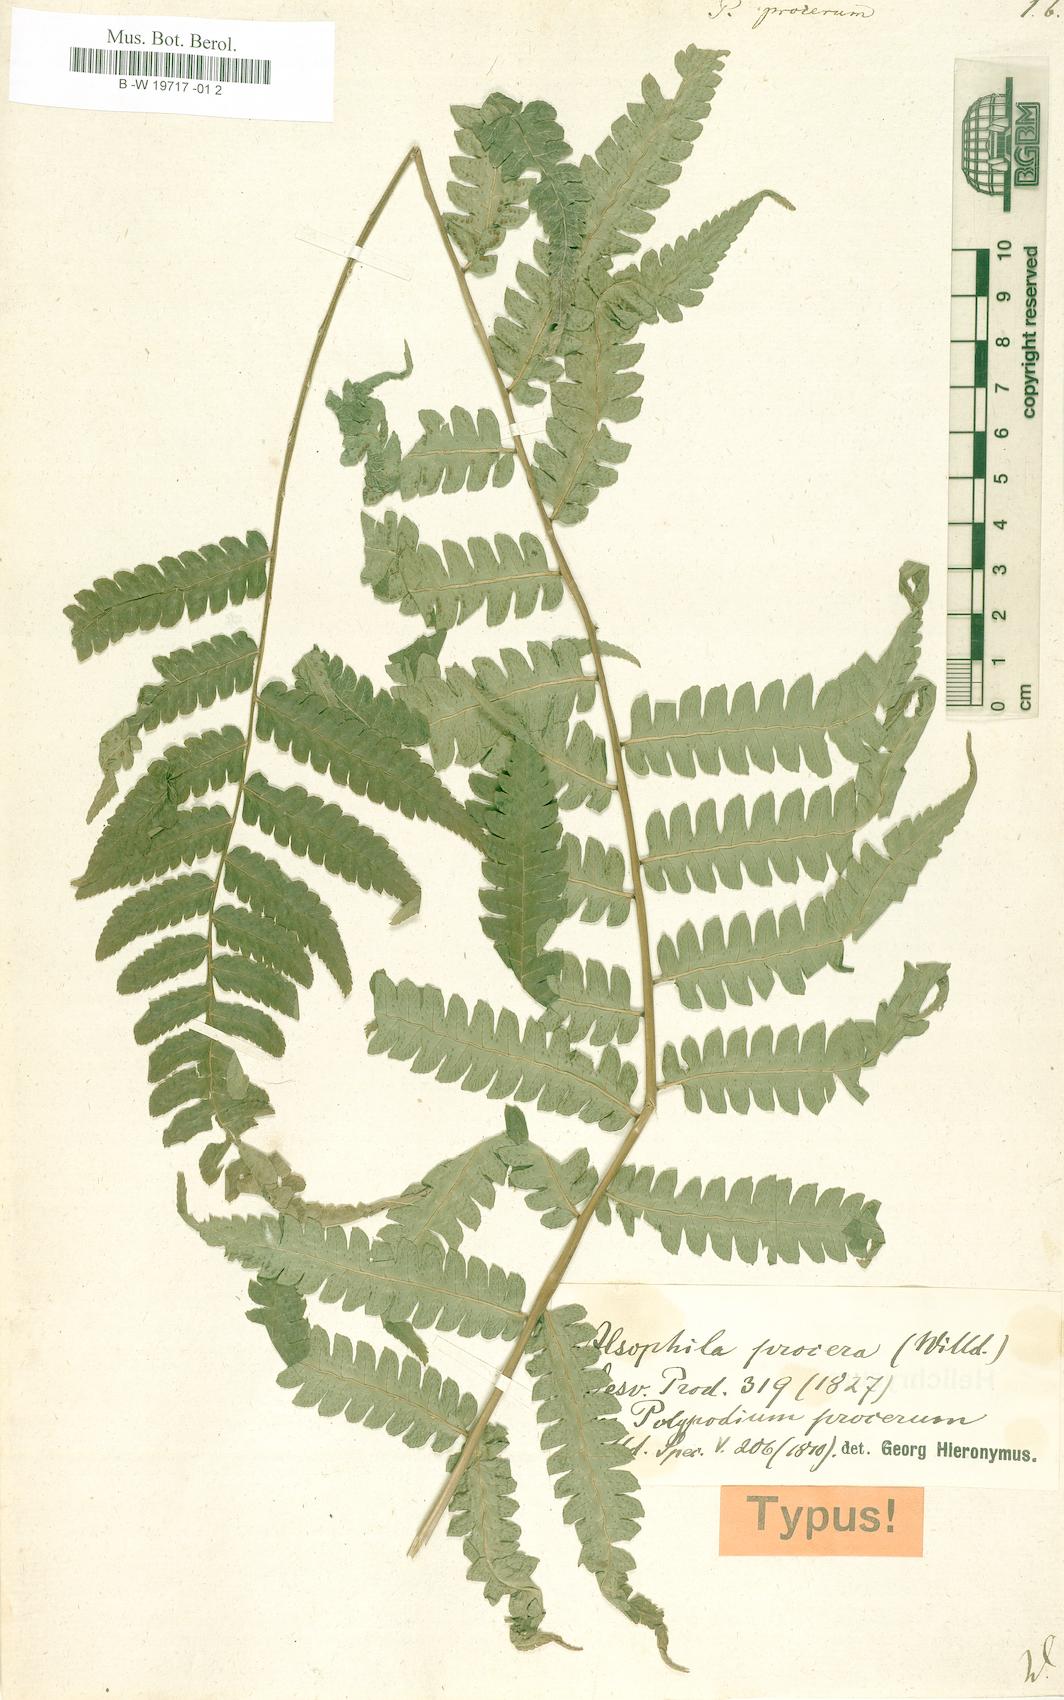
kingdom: Plantae
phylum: Tracheophyta
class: Polypodiopsida
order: Polypodiales
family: Polypodiaceae
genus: Selliguea
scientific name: Selliguea moulmeinensis
